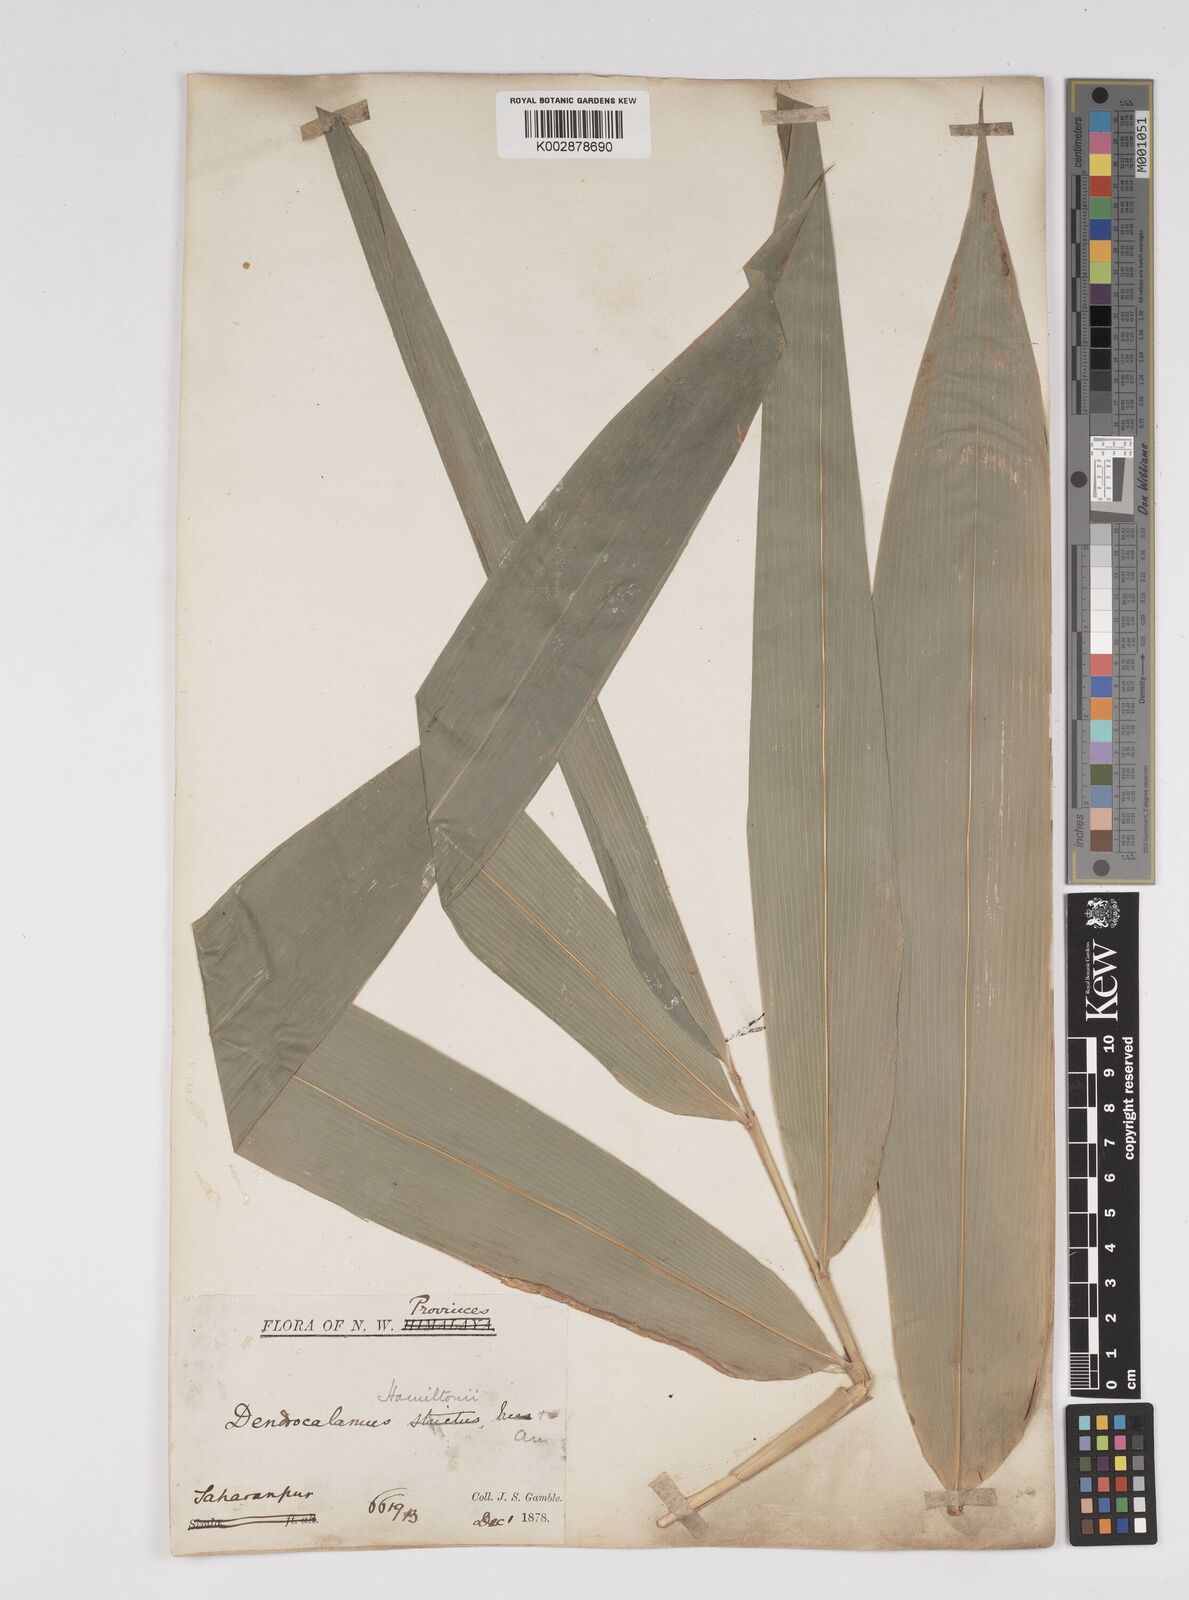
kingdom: Plantae
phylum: Tracheophyta
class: Liliopsida
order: Poales
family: Poaceae
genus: Dendrocalamus
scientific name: Dendrocalamus hamiltonii
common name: Tama bamboo
